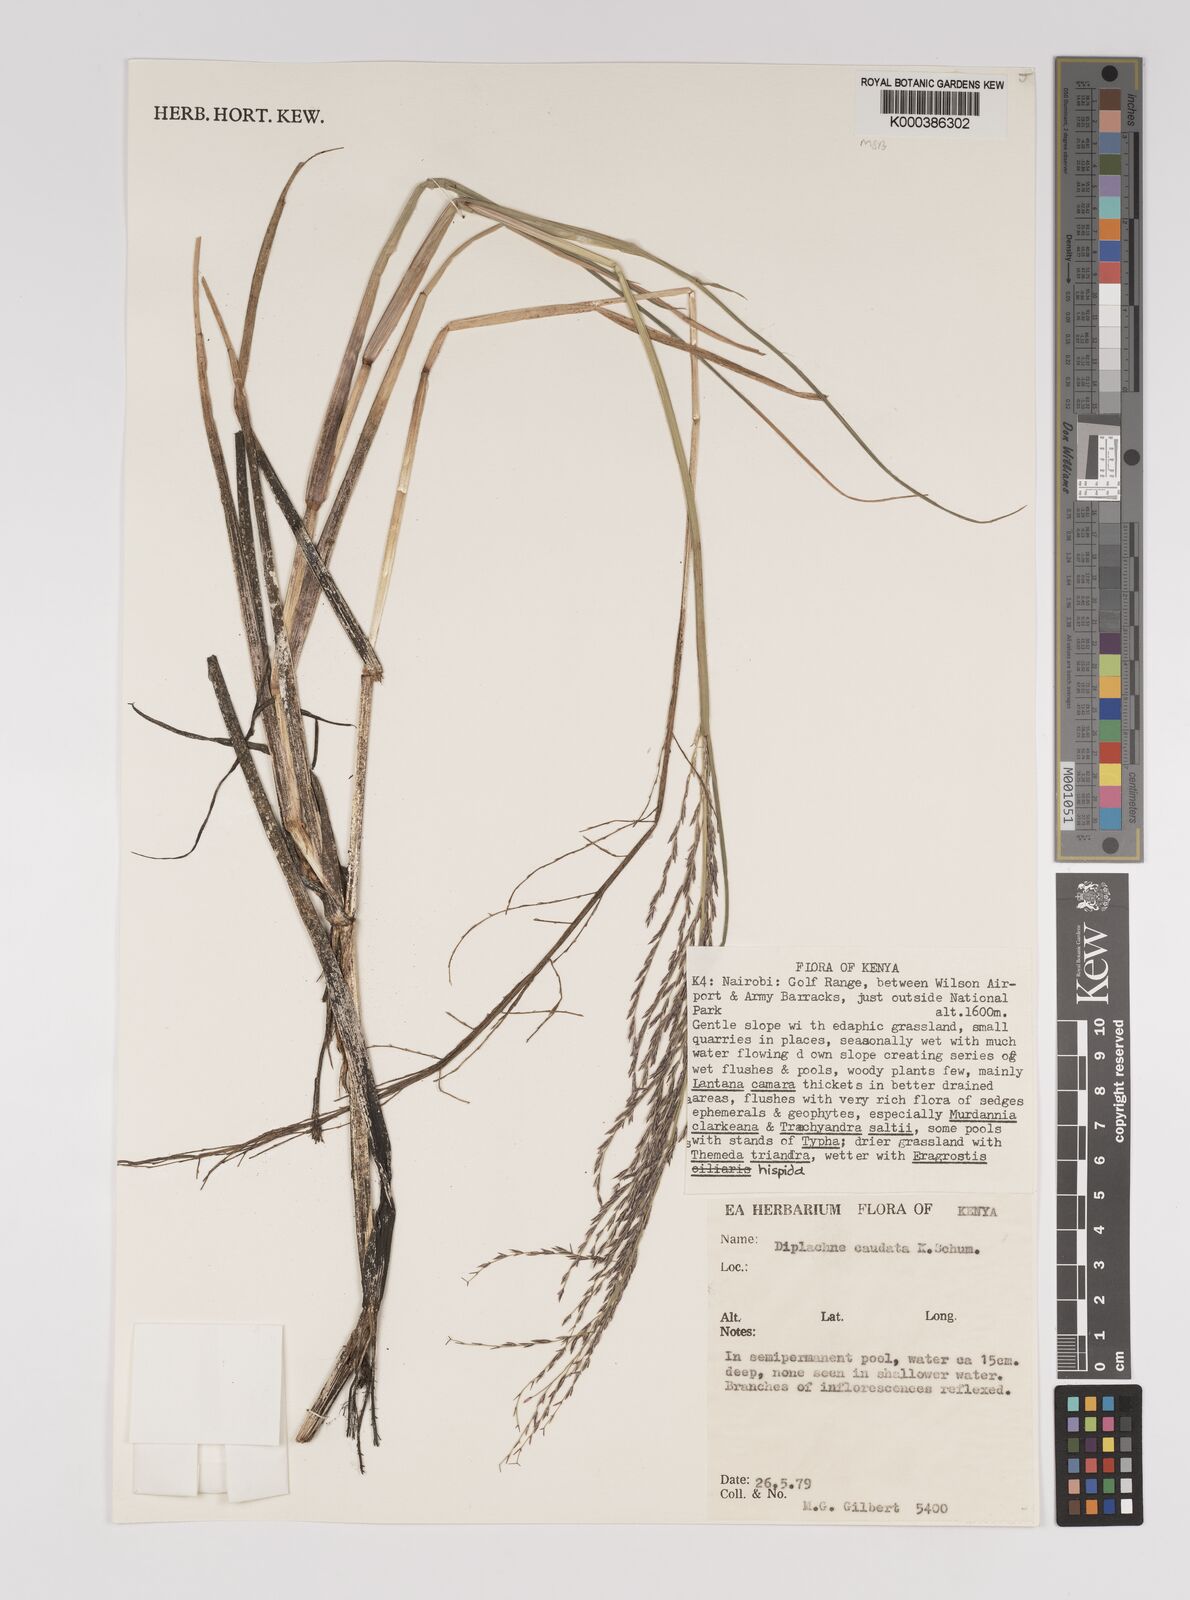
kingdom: Plantae
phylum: Tracheophyta
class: Liliopsida
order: Poales
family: Poaceae
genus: Leptochloa
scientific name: Leptochloa caudata
